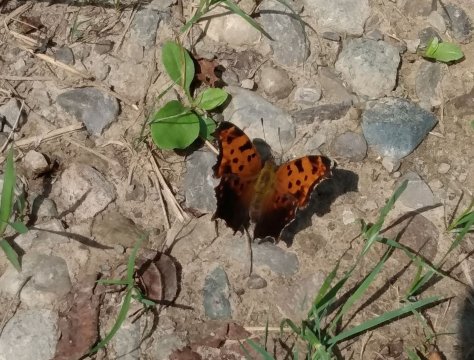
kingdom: Animalia
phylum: Arthropoda
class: Insecta
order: Lepidoptera
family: Nymphalidae
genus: Polygonia
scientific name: Polygonia comma
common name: Eastern Comma
